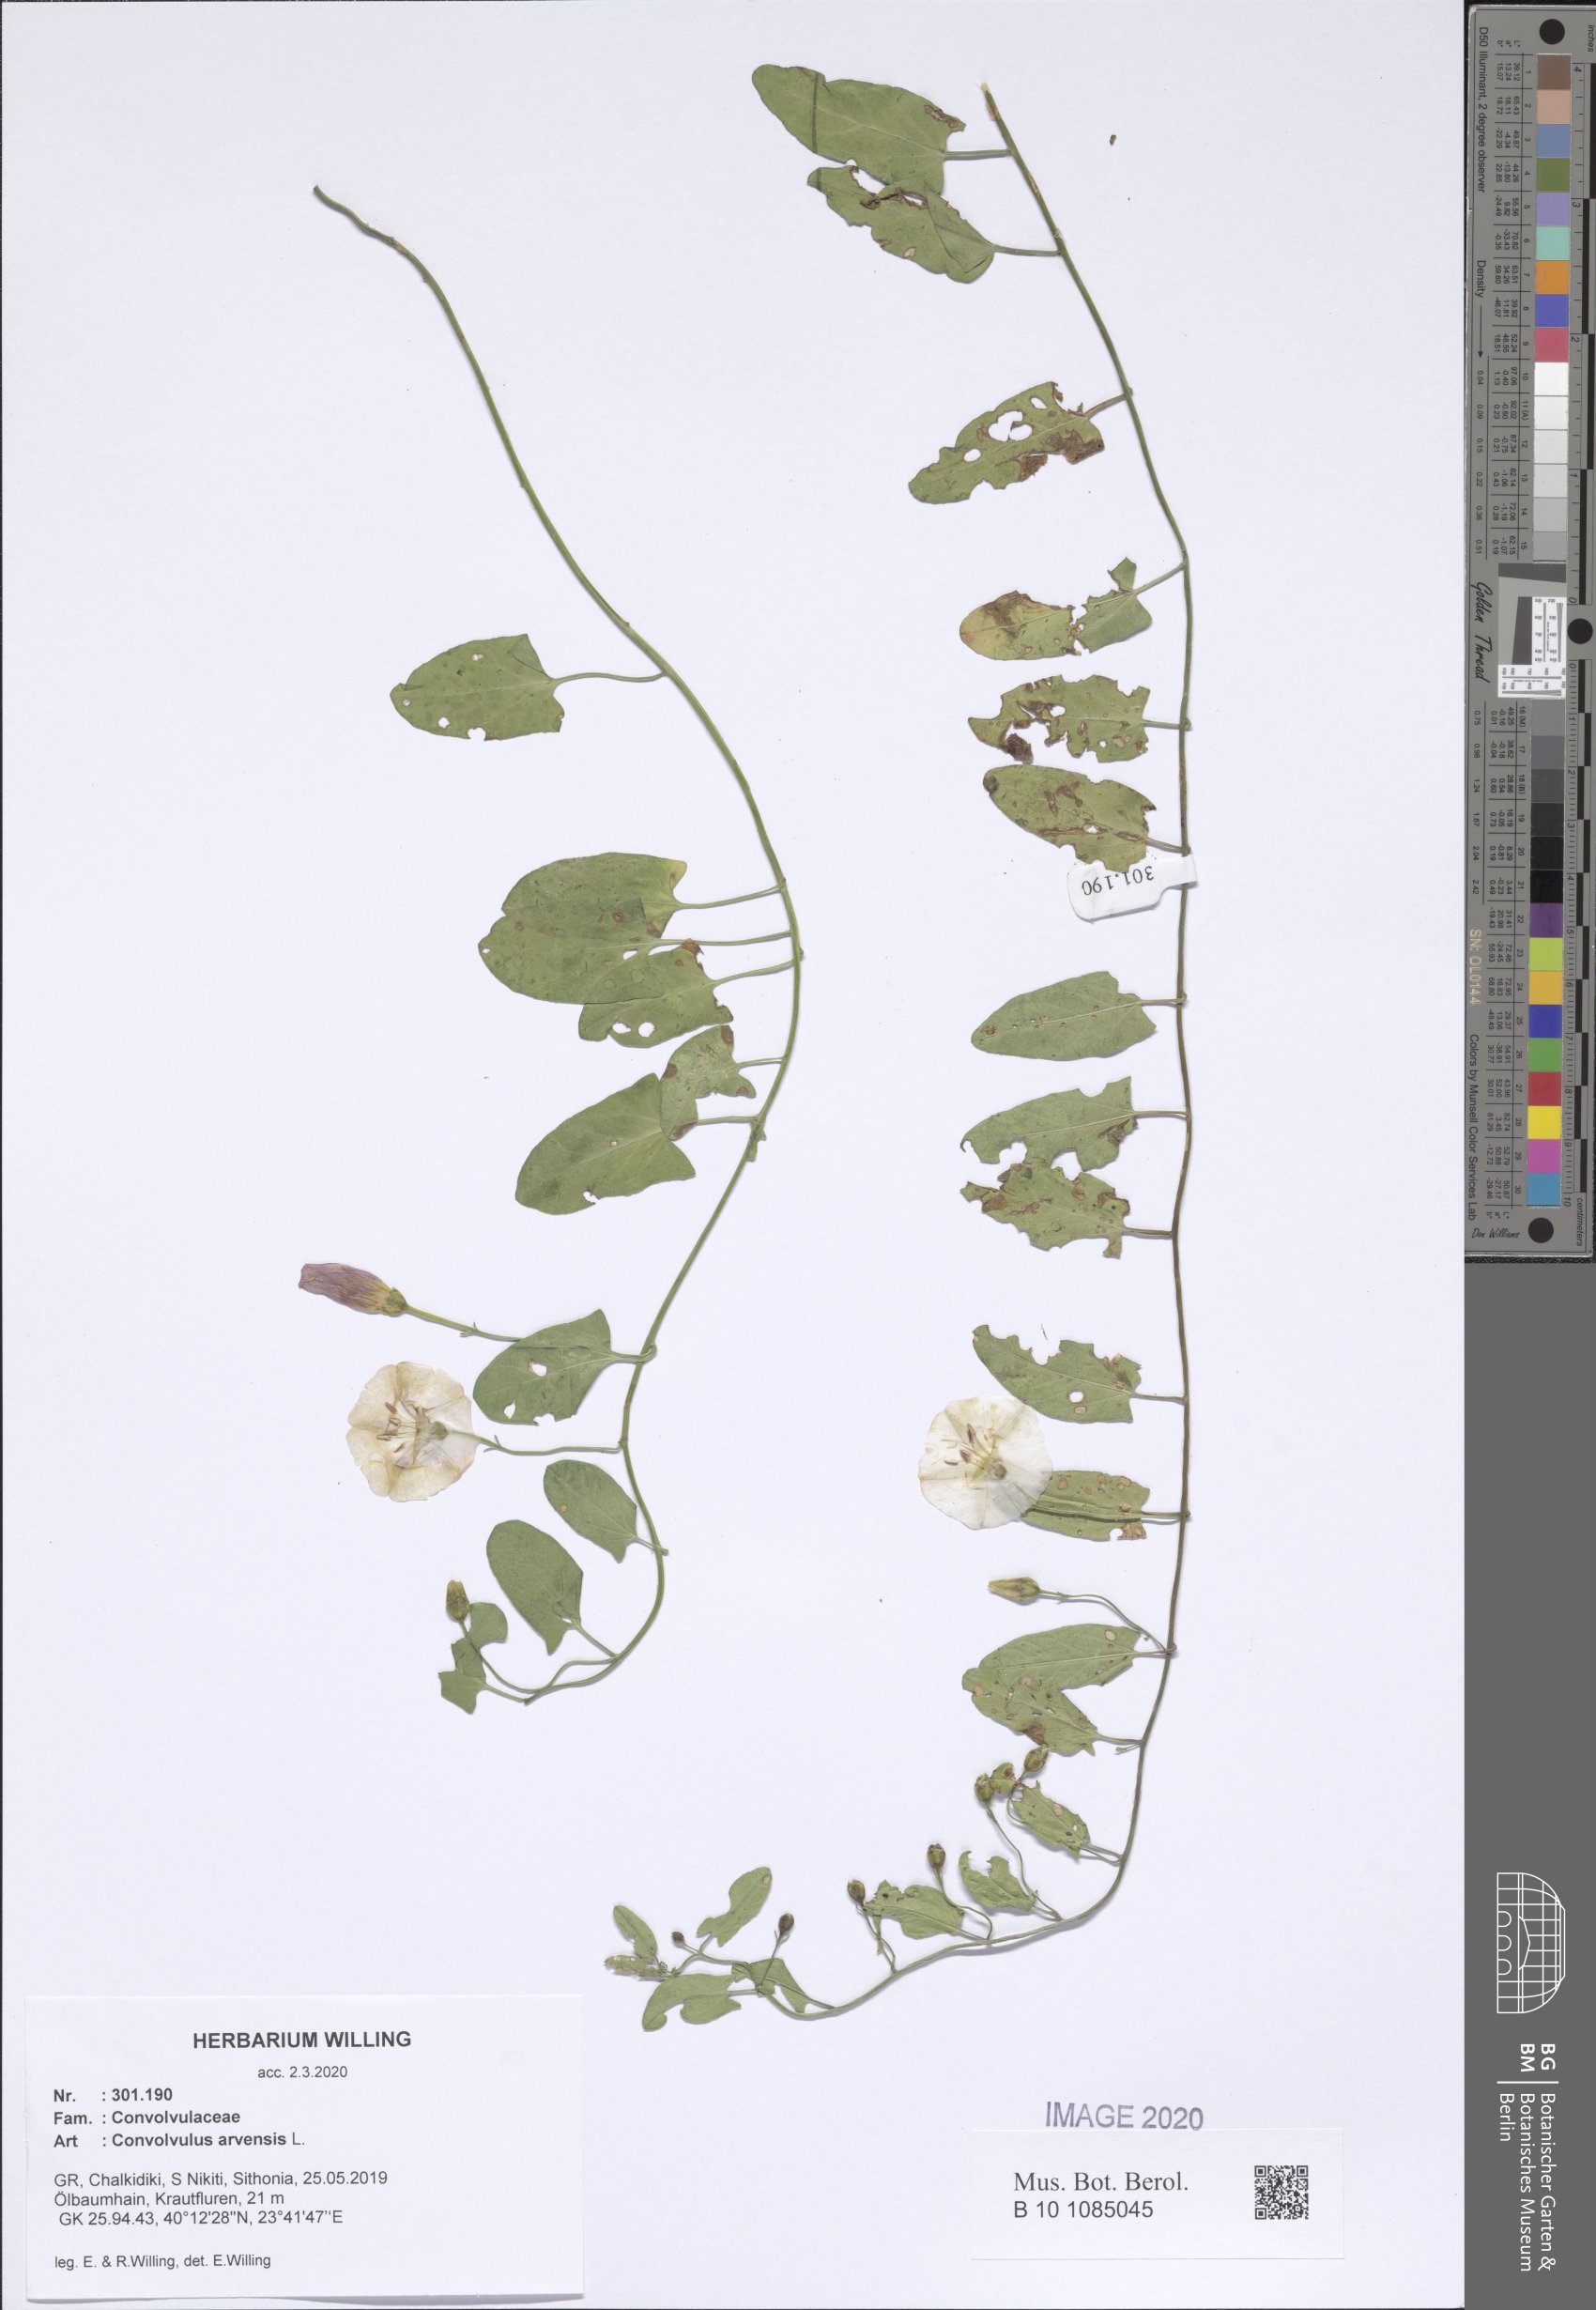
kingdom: Plantae
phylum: Tracheophyta
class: Magnoliopsida
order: Solanales
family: Convolvulaceae
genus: Convolvulus
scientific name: Convolvulus arvensis
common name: Field bindweed
